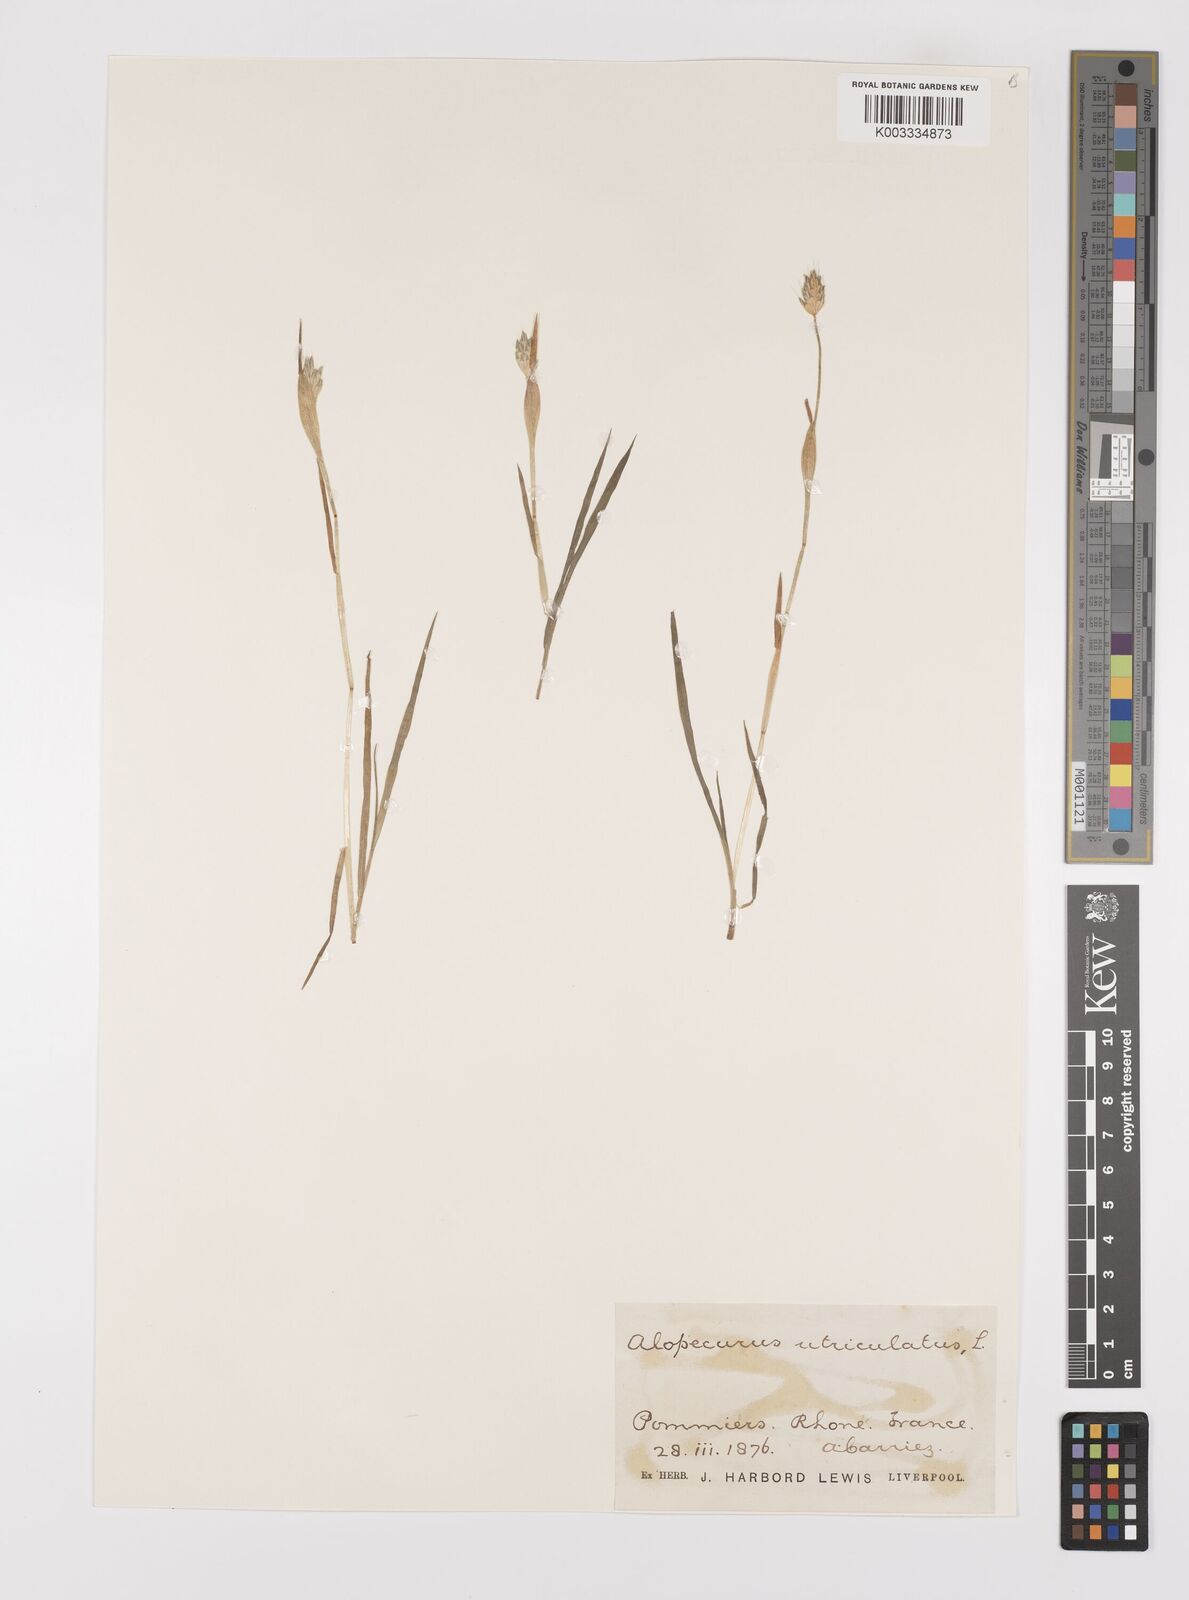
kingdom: Plantae
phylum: Tracheophyta
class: Liliopsida
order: Poales
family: Poaceae
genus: Alopecurus
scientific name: Alopecurus rendlei
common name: Rendle's meadow foxtail
